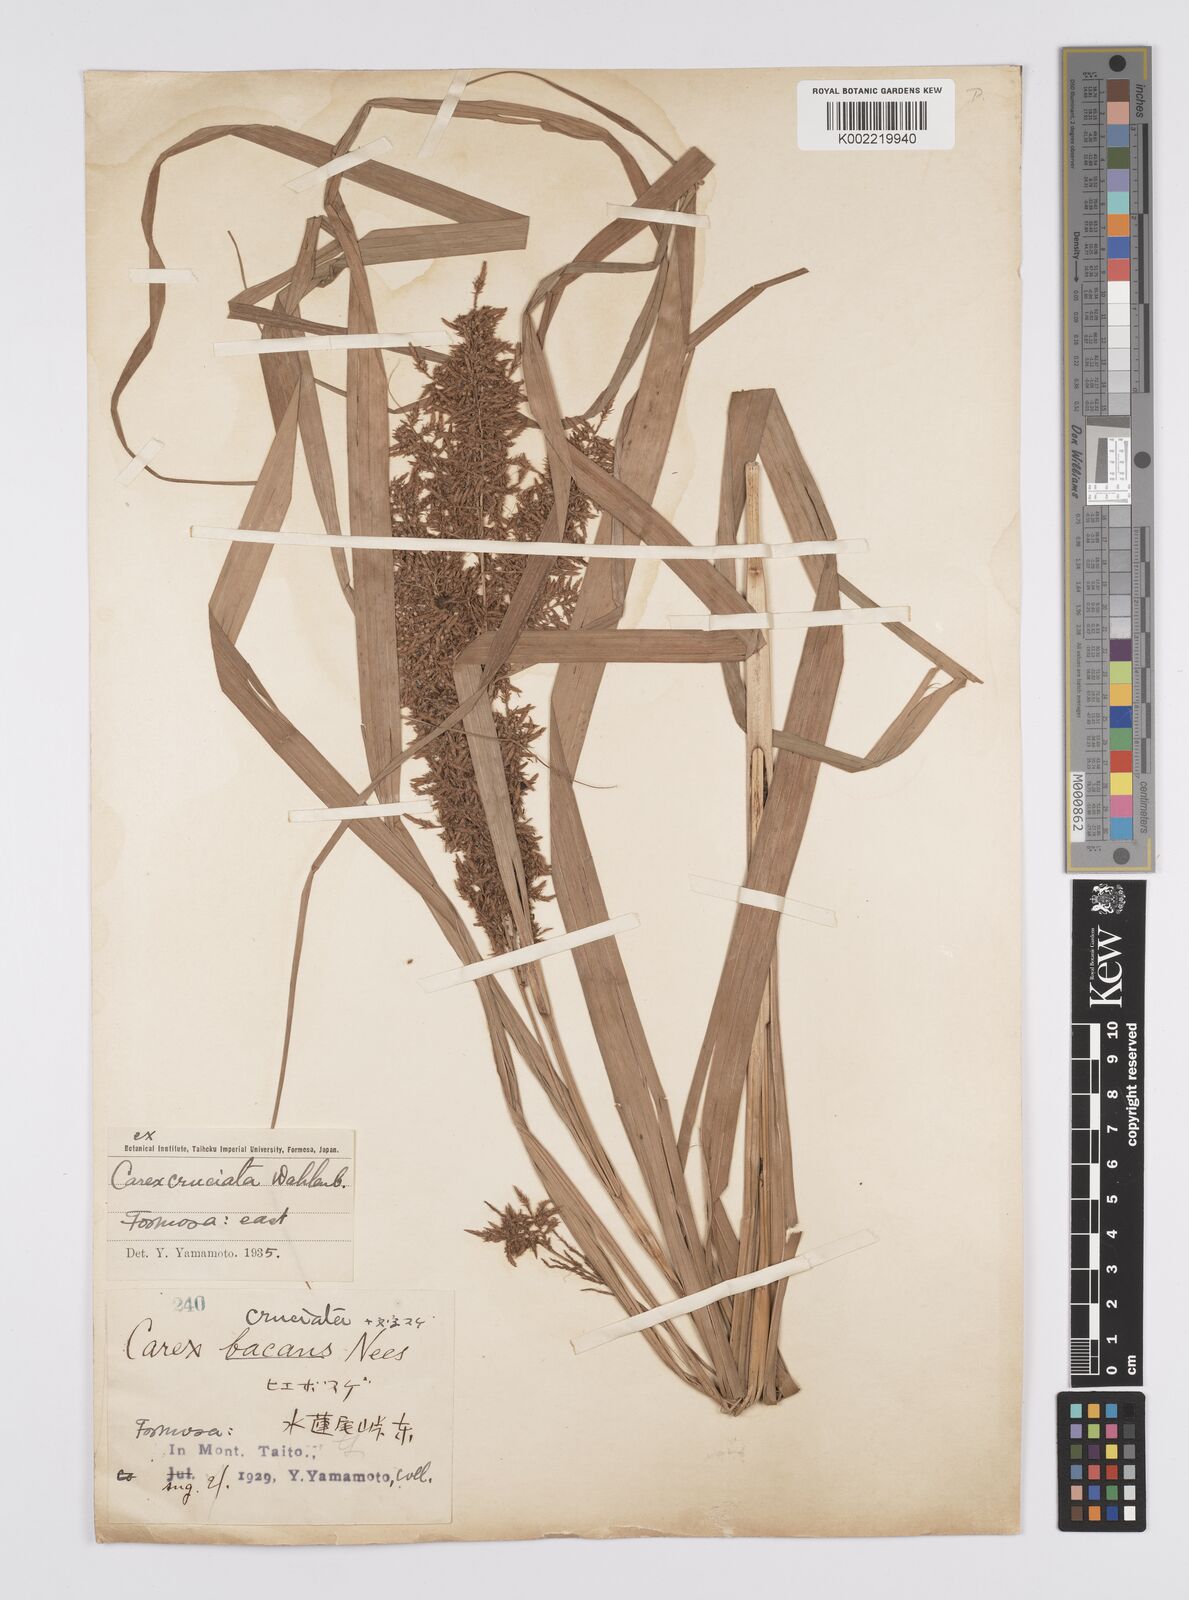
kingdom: Plantae
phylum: Tracheophyta
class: Liliopsida
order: Poales
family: Cyperaceae
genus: Carex
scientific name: Carex cruciata
